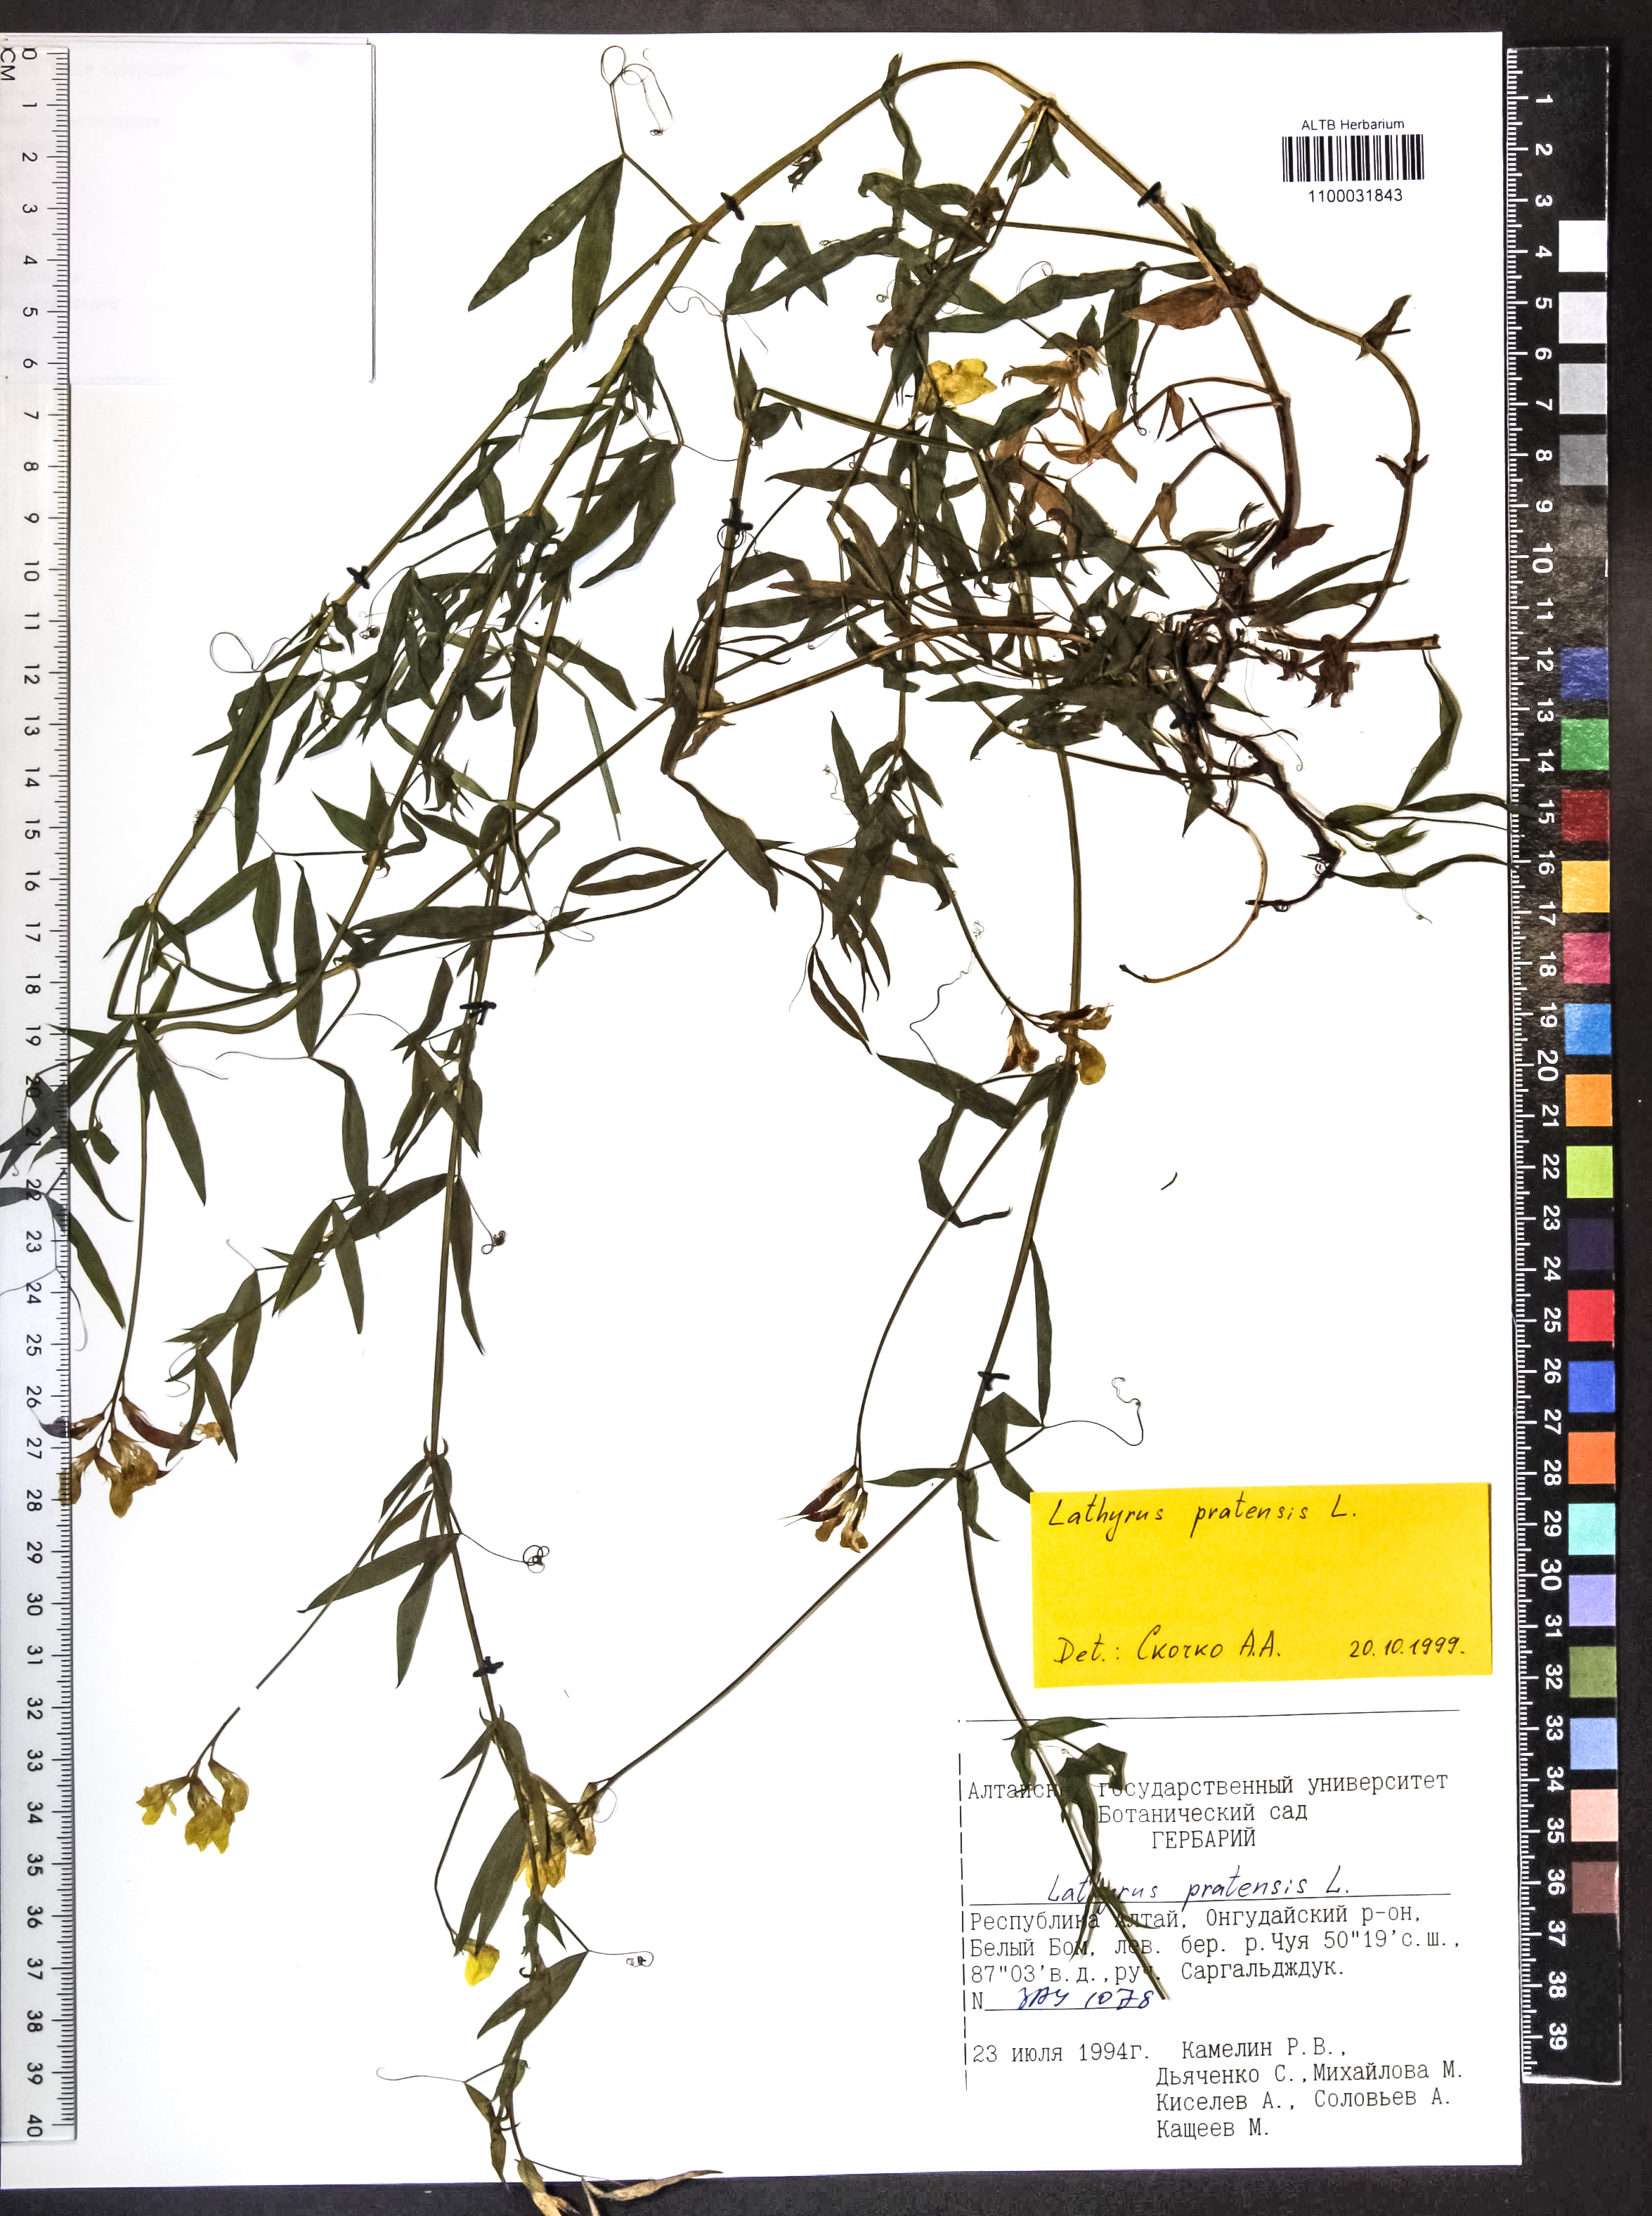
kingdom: Plantae
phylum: Tracheophyta
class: Magnoliopsida
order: Fabales
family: Fabaceae
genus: Lathyrus
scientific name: Lathyrus pratensis
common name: Meadow vetchling
